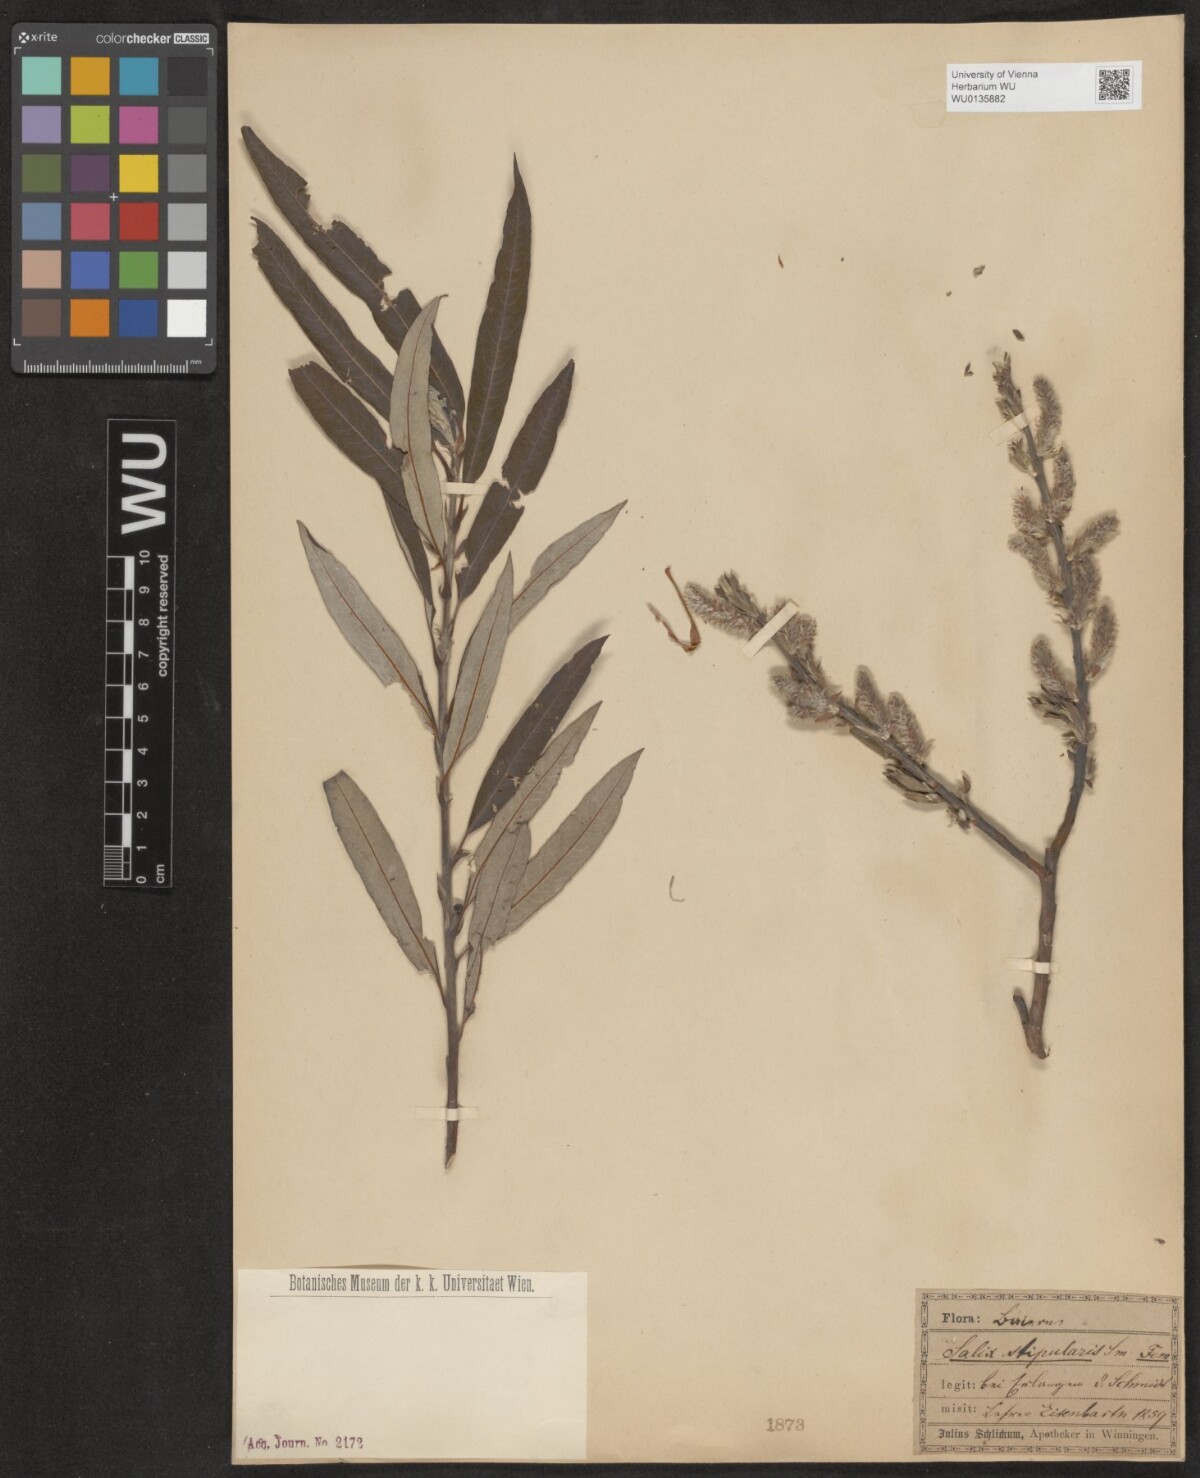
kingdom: Plantae
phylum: Tracheophyta
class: Magnoliopsida
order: Malpighiales
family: Salicaceae
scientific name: Salicaceae
